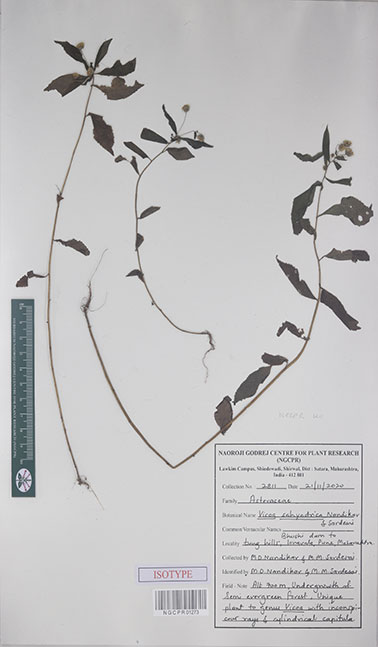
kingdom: Plantae
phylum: Tracheophyta
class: Magnoliopsida
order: Asterales
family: Asteraceae
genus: Vicoa
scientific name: Vicoa sahyadrica
